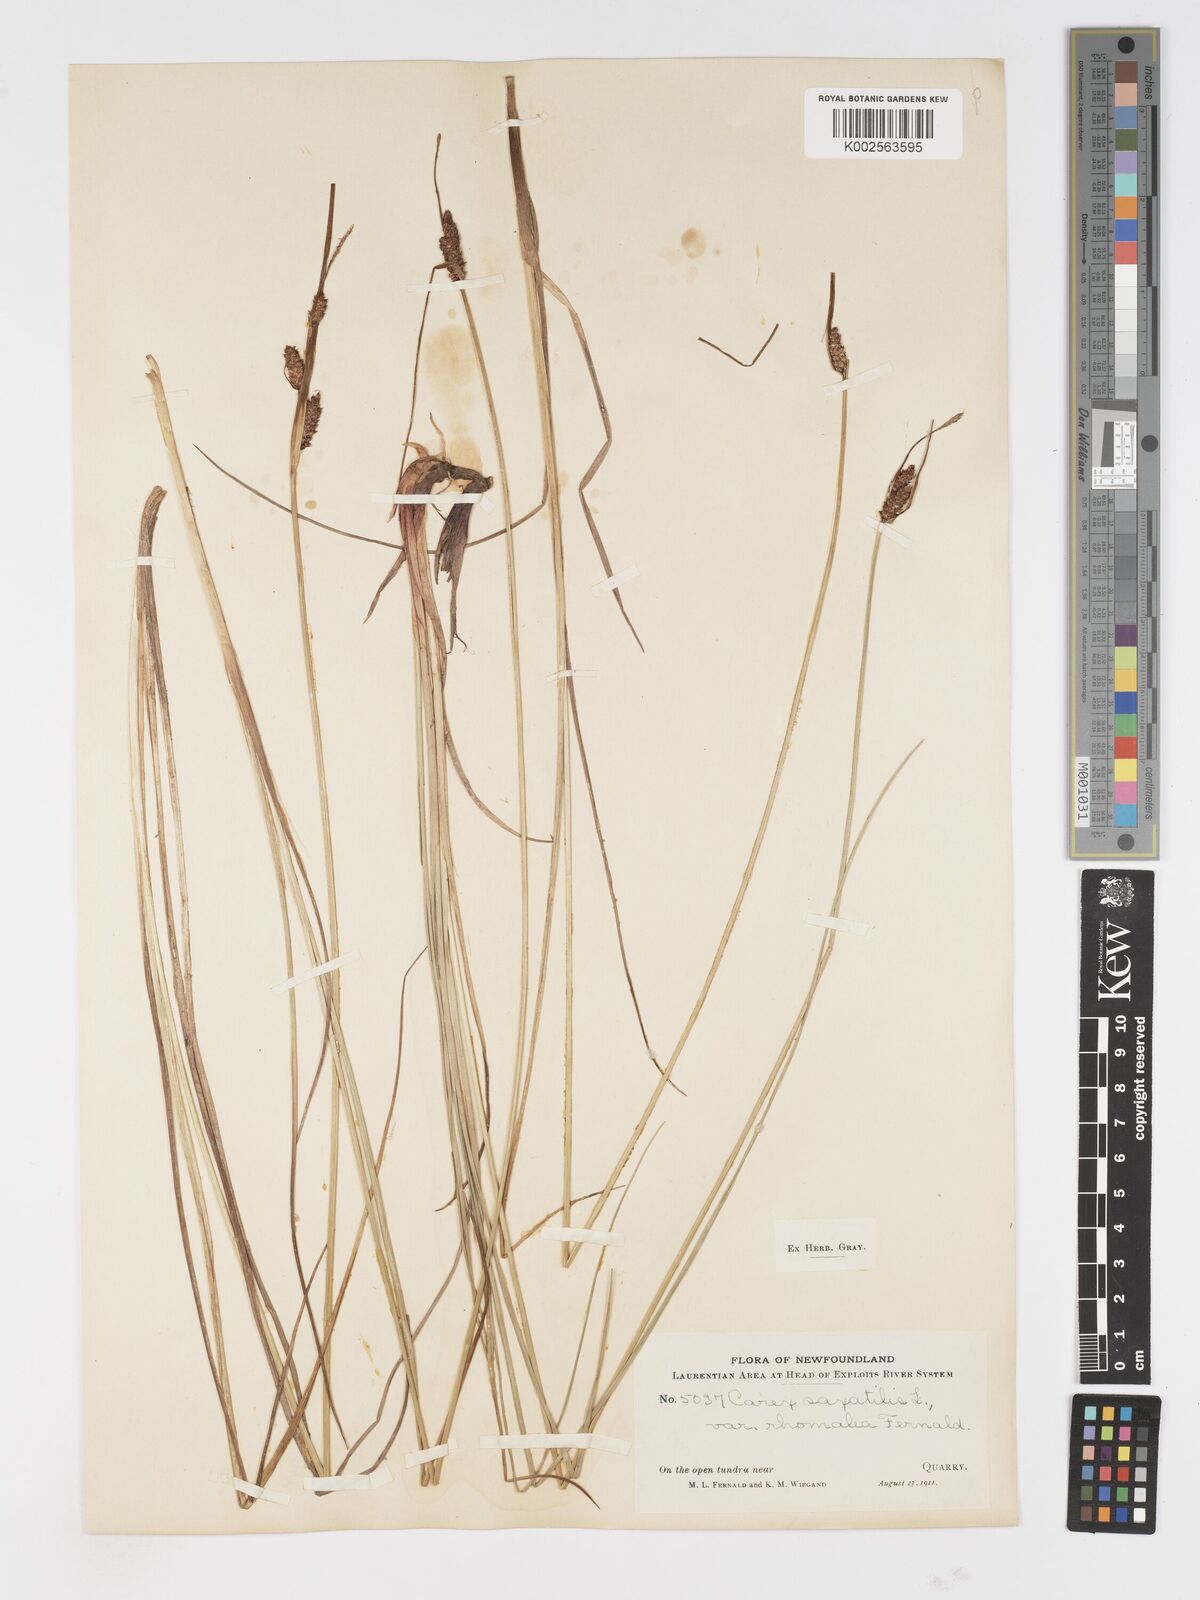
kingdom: Plantae
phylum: Tracheophyta
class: Liliopsida
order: Poales
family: Cyperaceae
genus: Carex
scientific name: Carex miliaris
